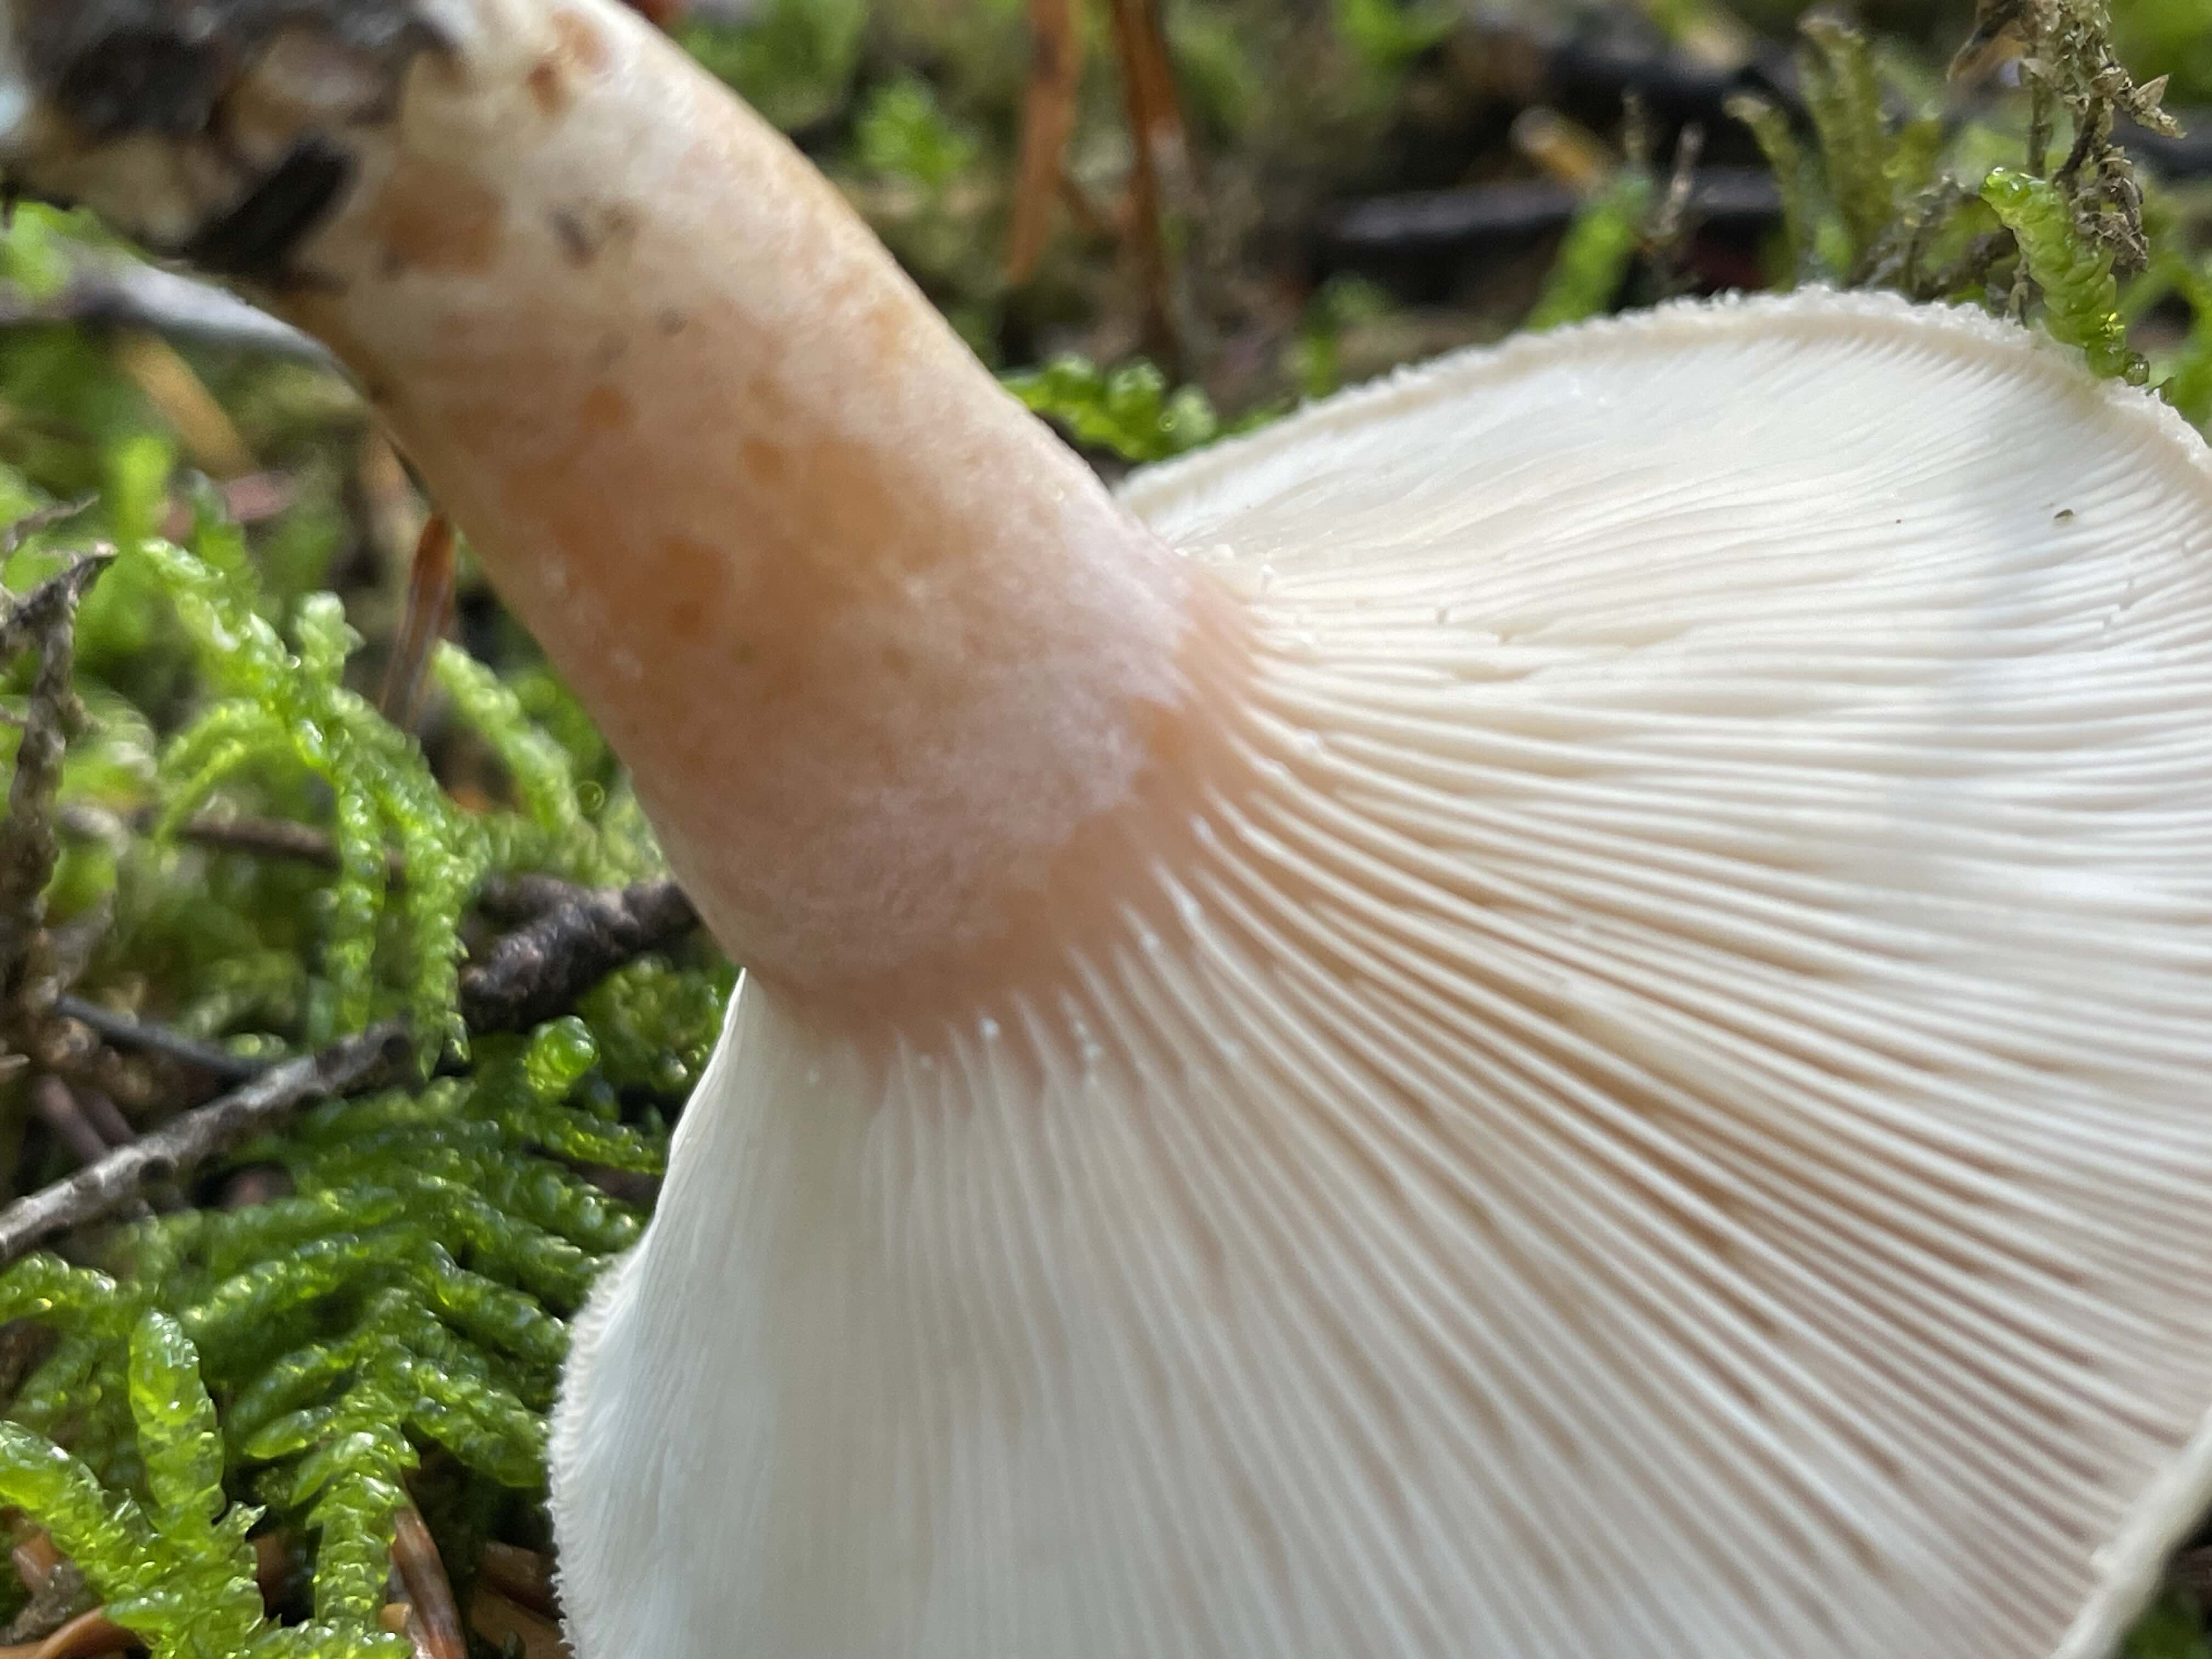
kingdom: Fungi
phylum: Basidiomycota
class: Agaricomycetes
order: Russulales
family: Russulaceae
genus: Lactarius
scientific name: Lactarius pubescens
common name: dunet mælkehat
